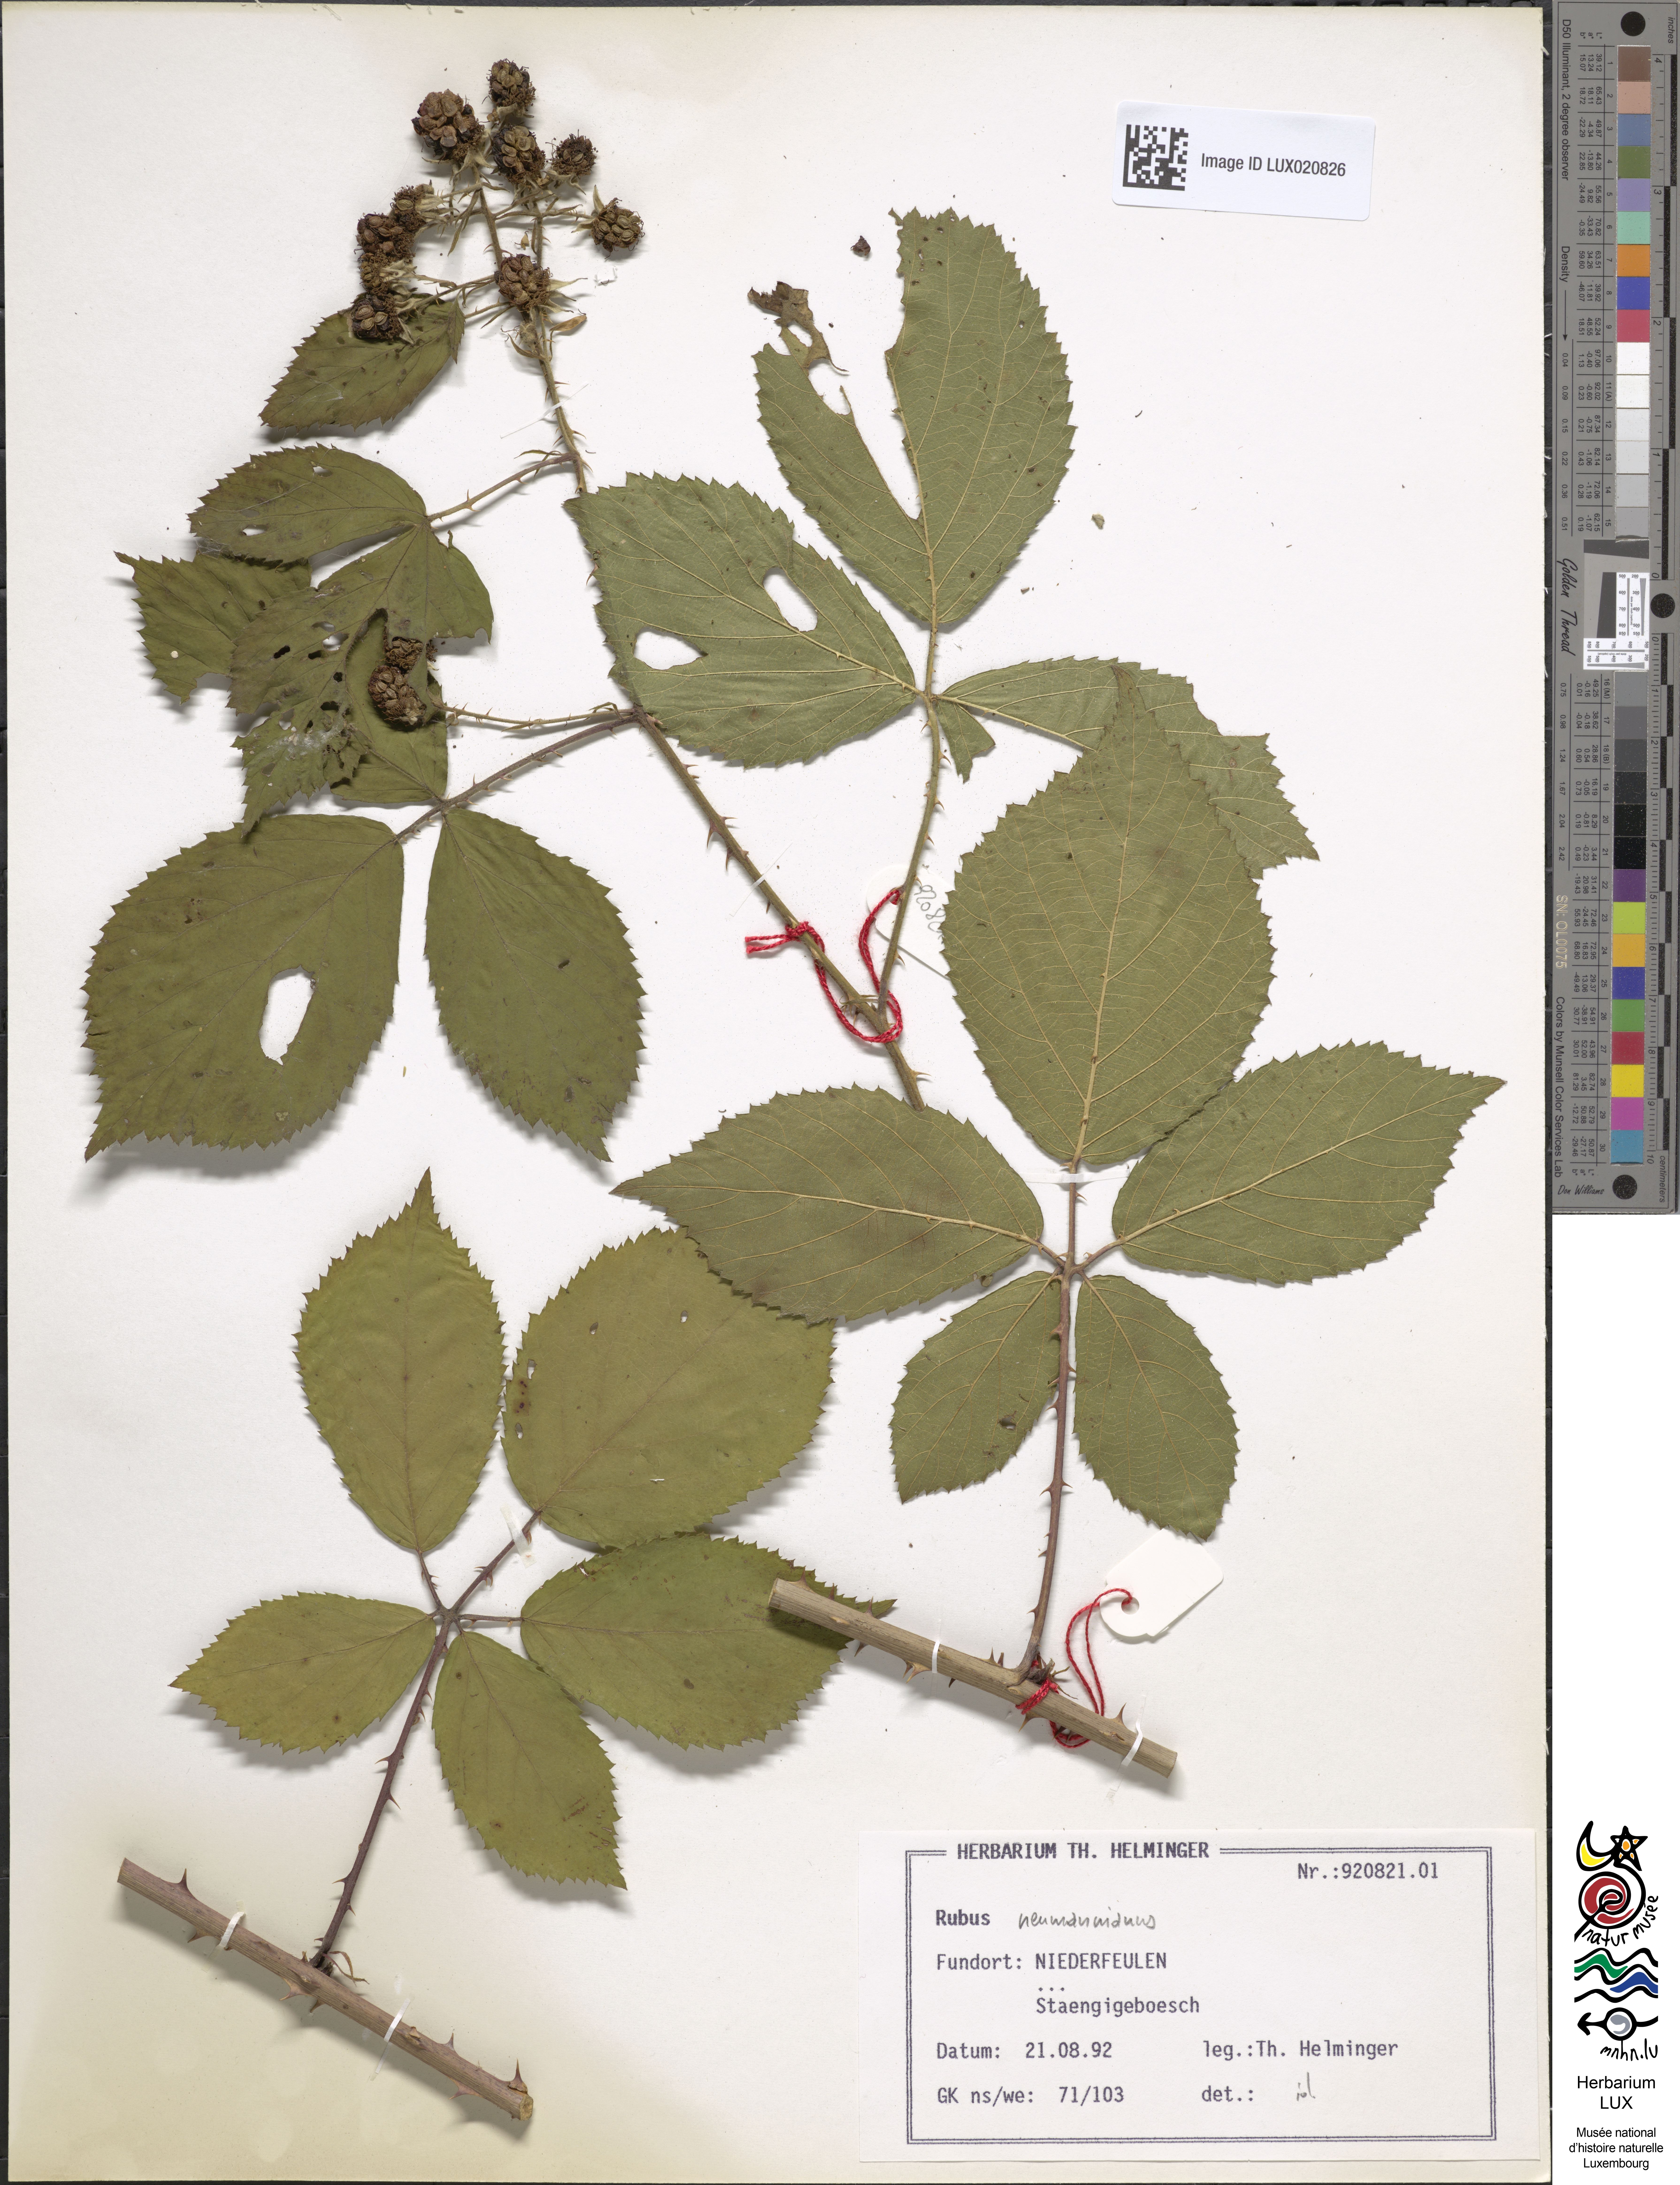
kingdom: Plantae
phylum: Tracheophyta
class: Magnoliopsida
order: Rosales
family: Rosaceae
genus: Rubus
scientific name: Rubus favonii
